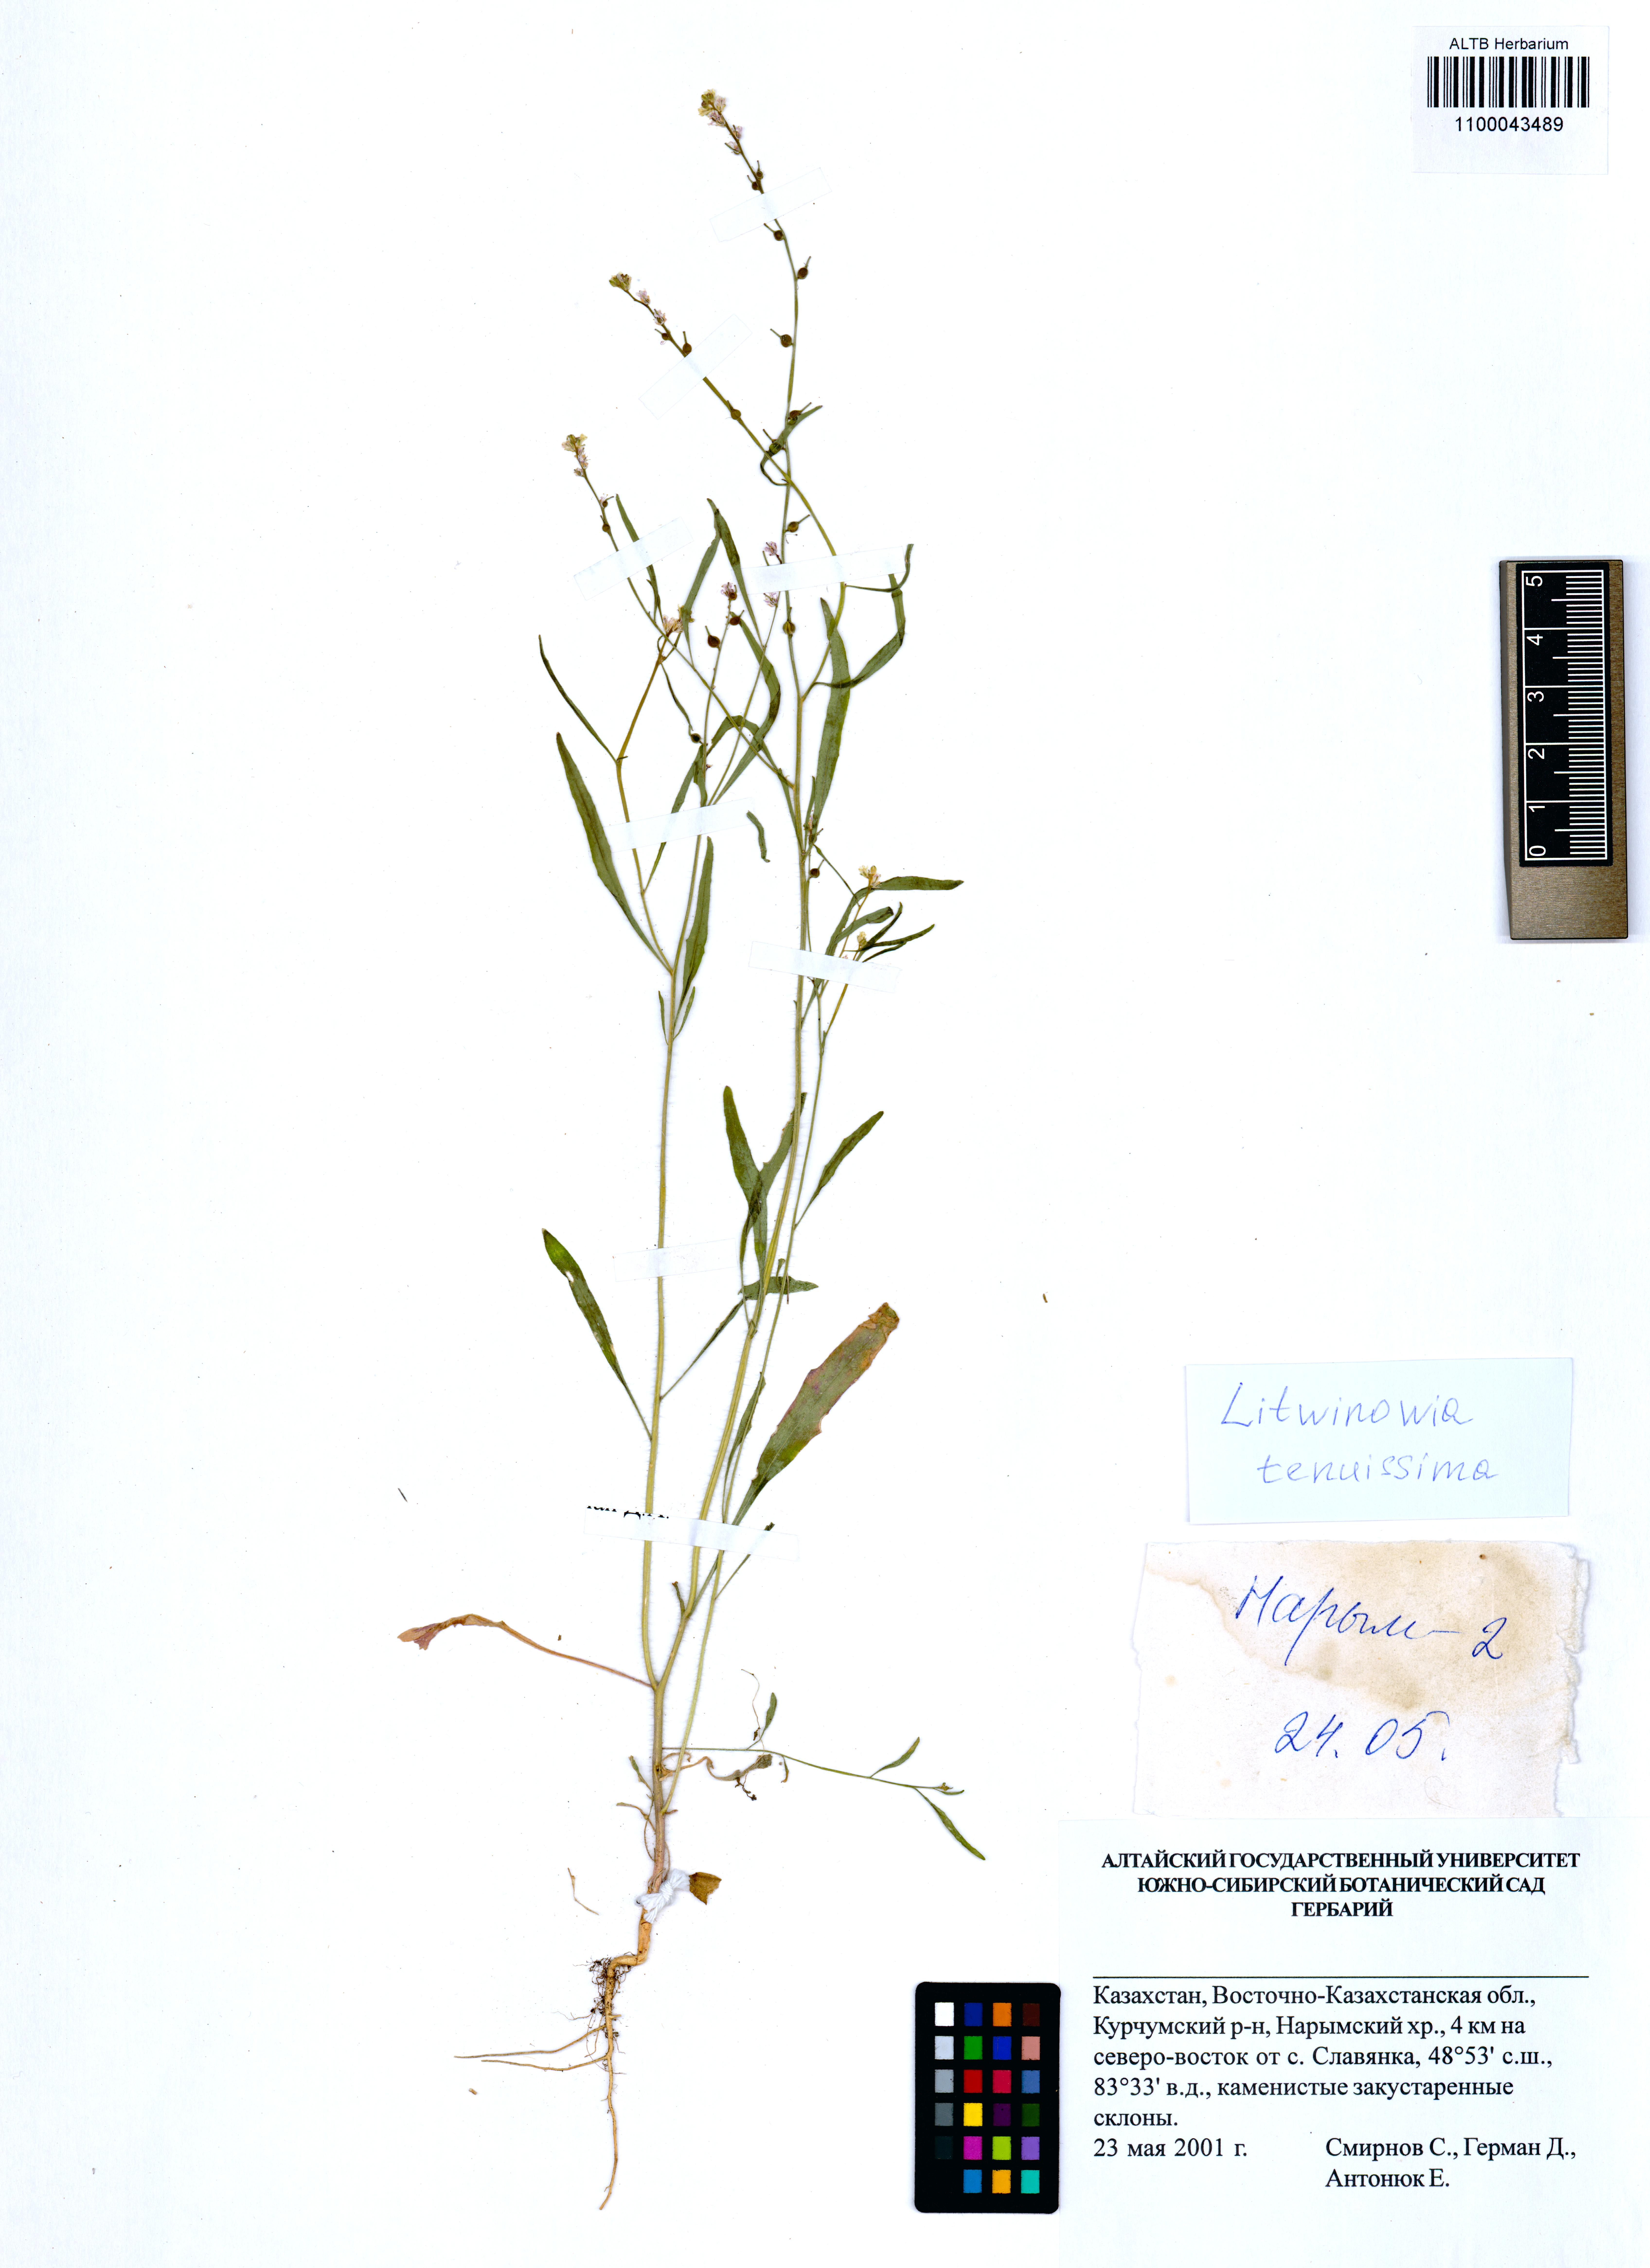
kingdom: Plantae
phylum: Tracheophyta
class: Magnoliopsida
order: Brassicales
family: Brassicaceae
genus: Litwinowia
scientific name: Litwinowia tenuissima
